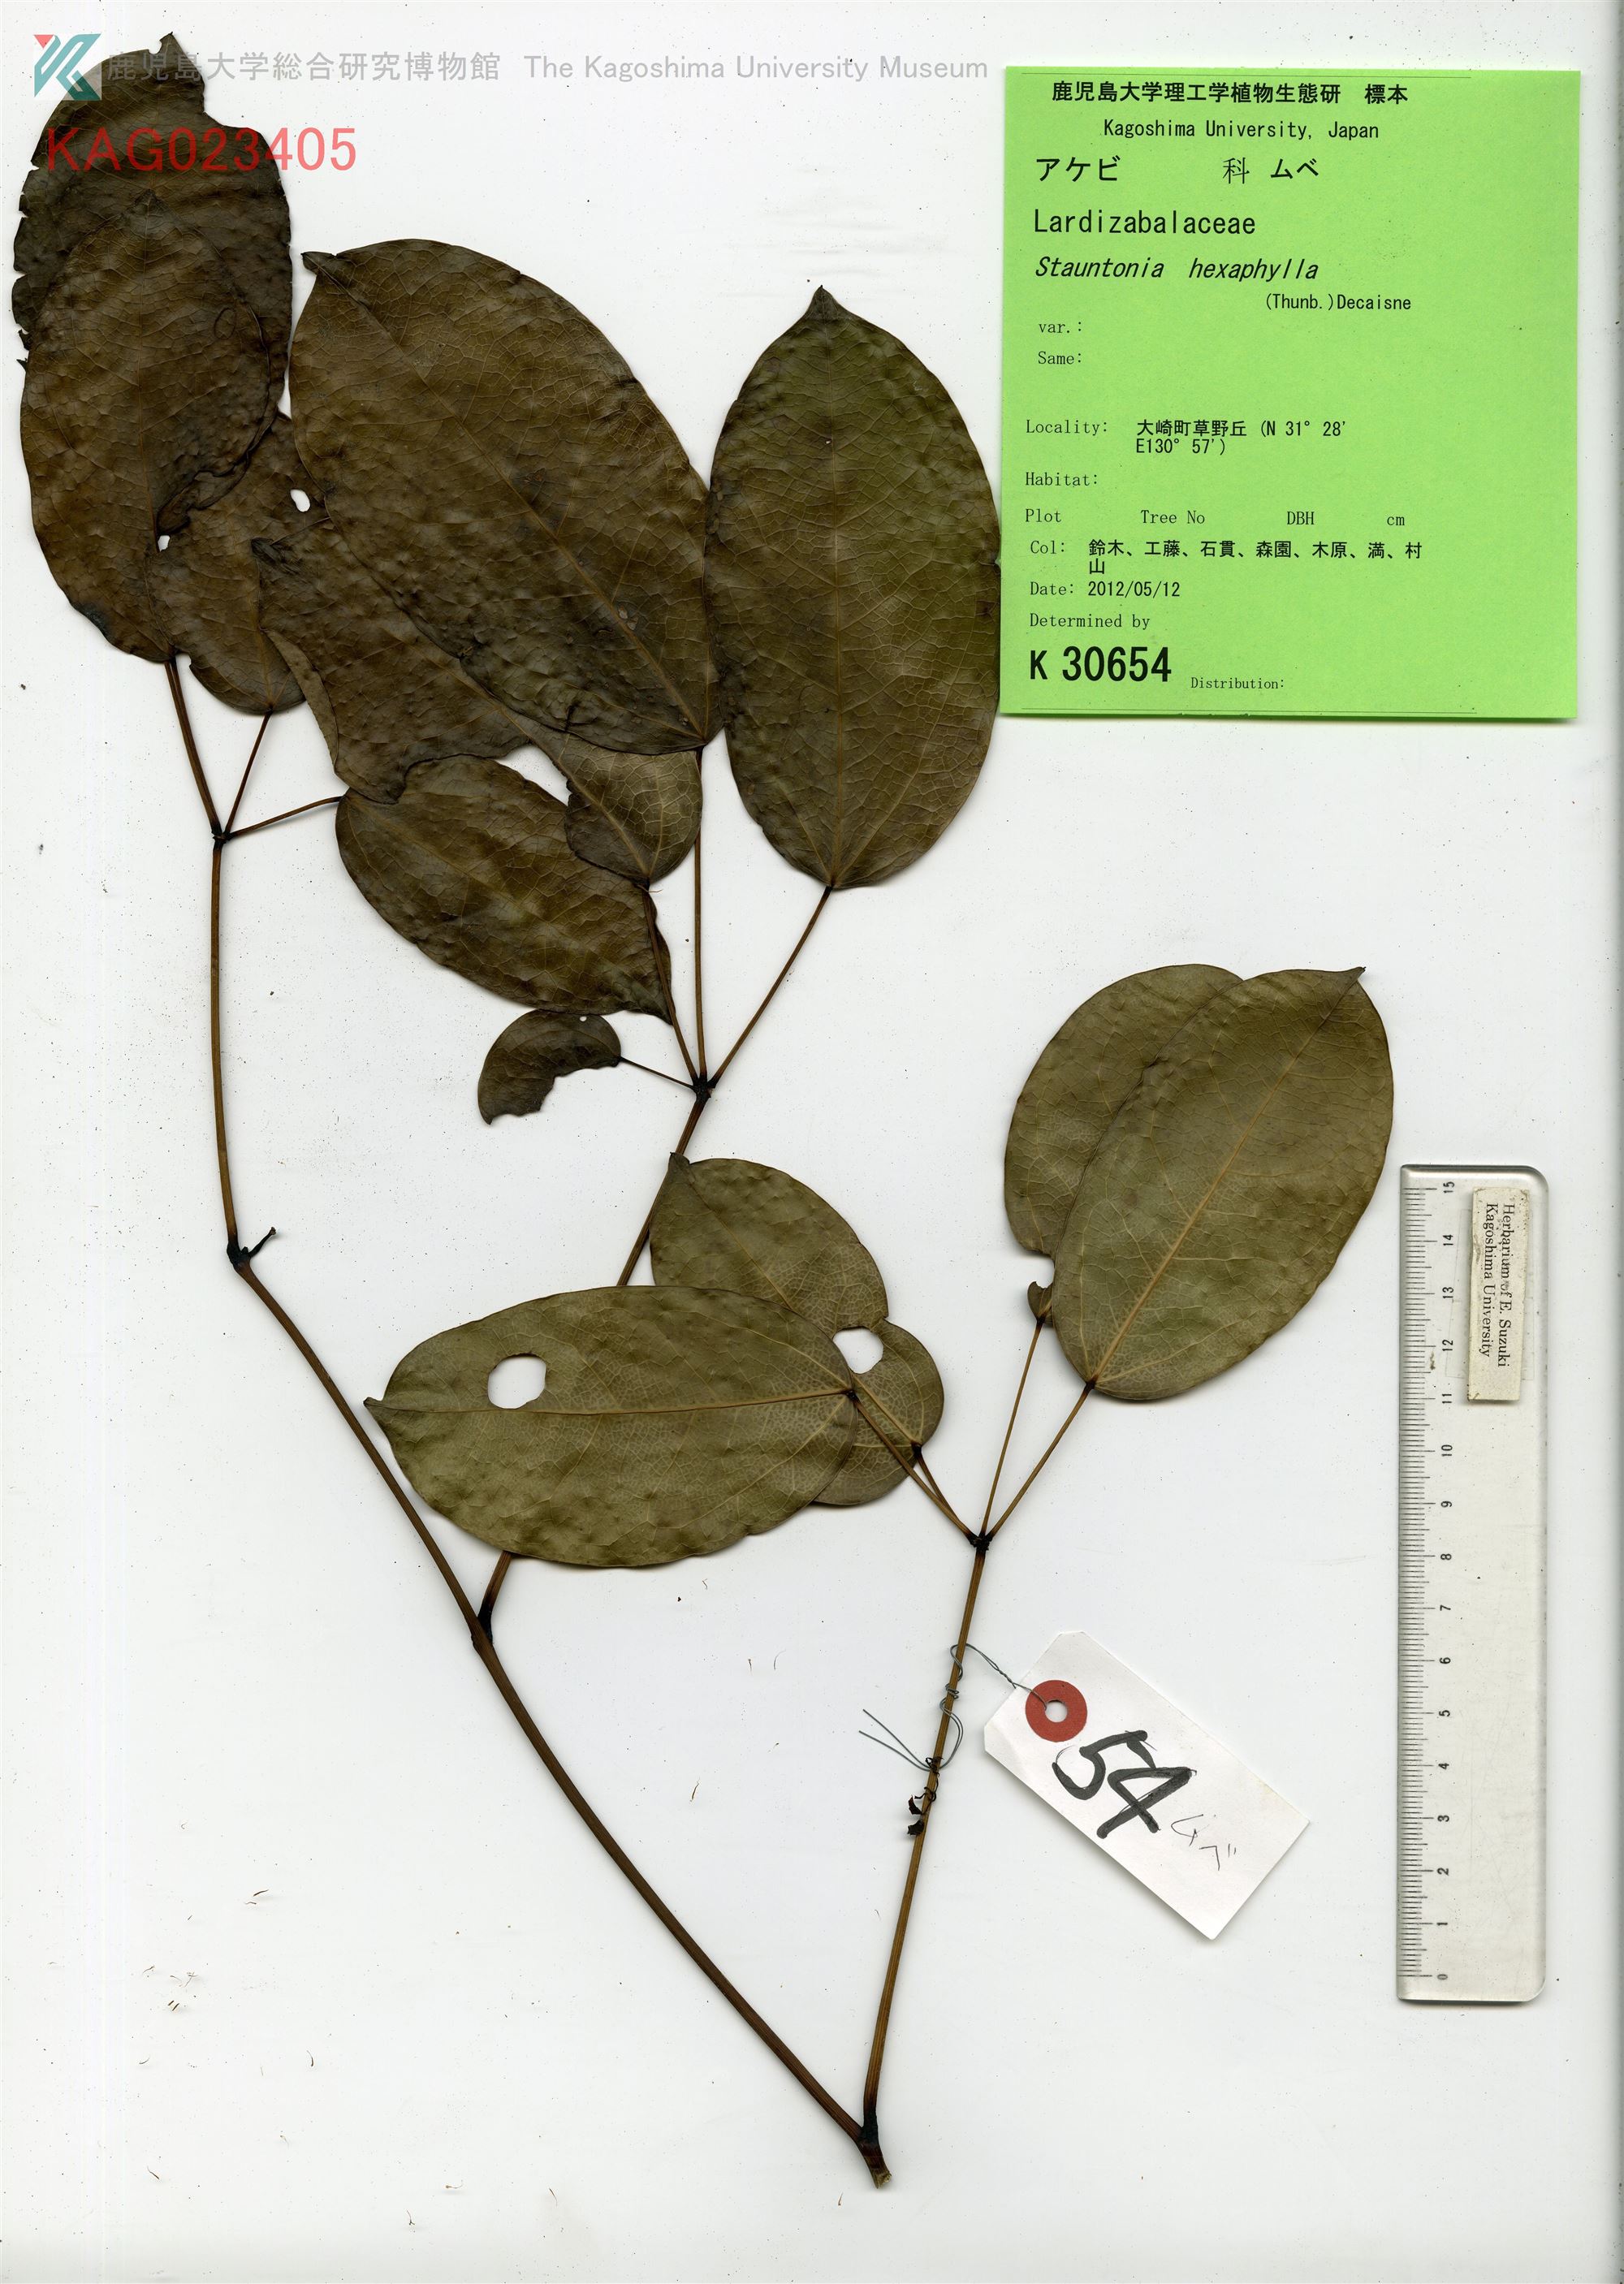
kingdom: Plantae
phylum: Tracheophyta
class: Magnoliopsida
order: Ranunculales
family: Lardizabalaceae
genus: Stauntonia
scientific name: Stauntonia hexaphylla
